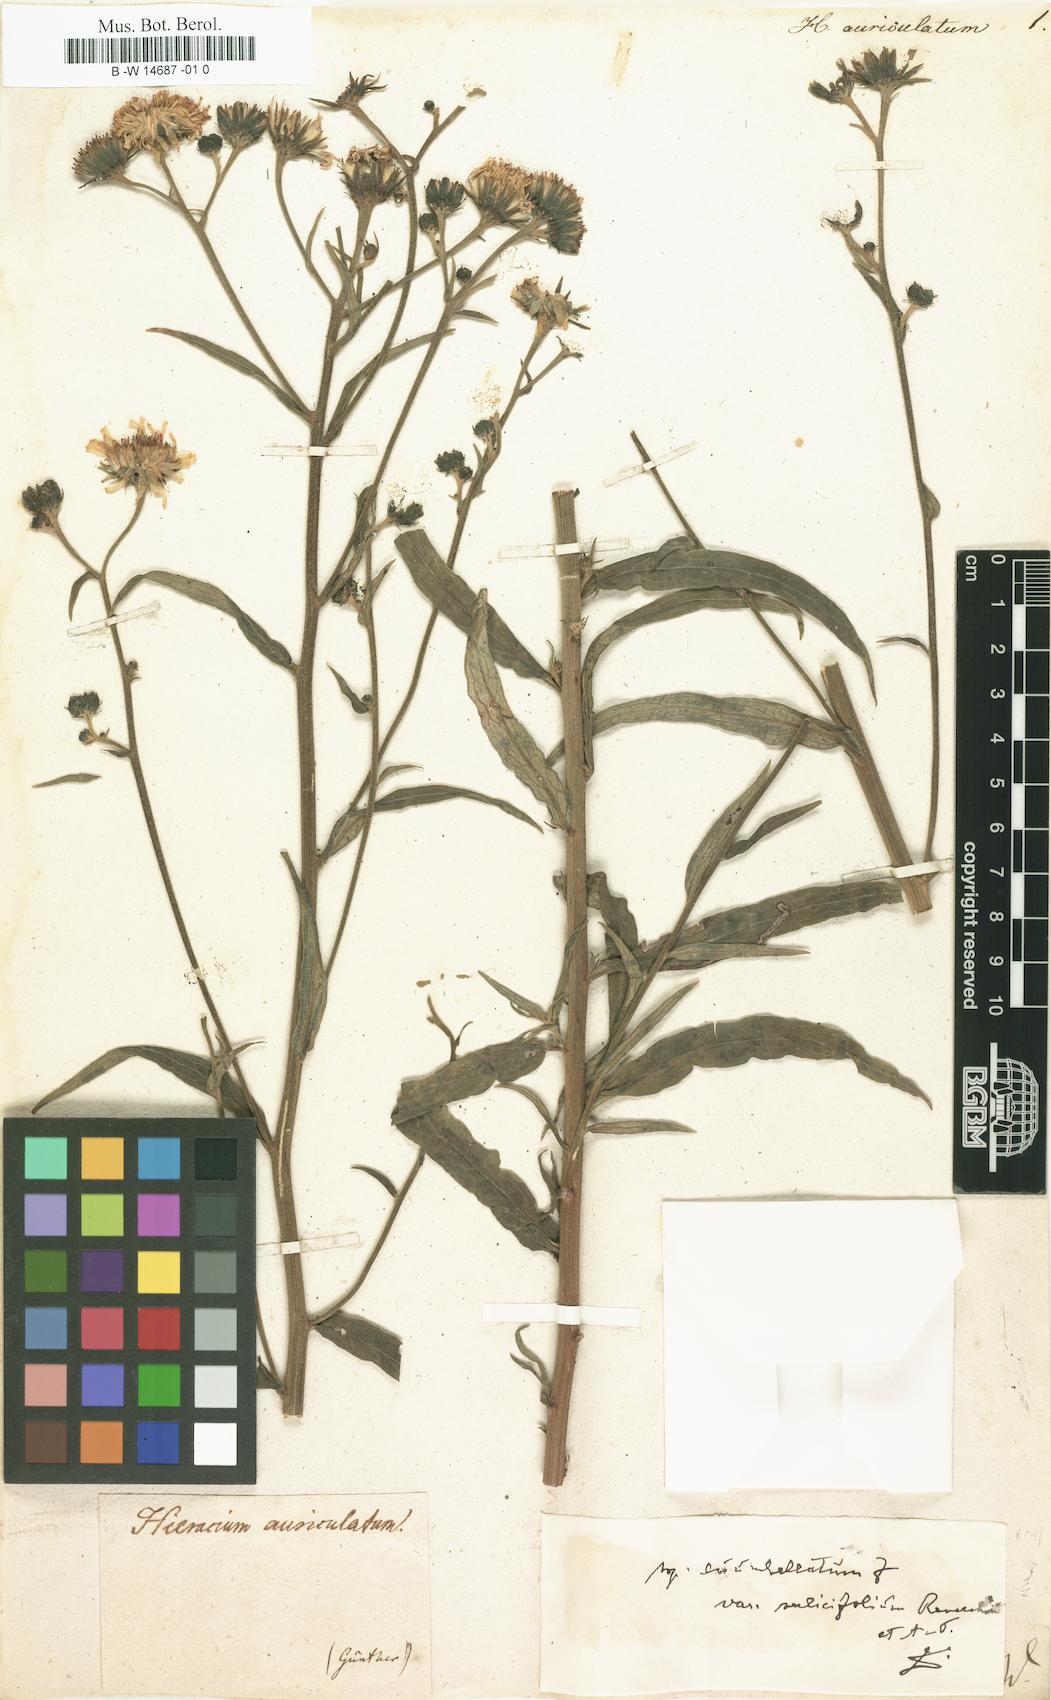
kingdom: Plantae
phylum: Tracheophyta
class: Magnoliopsida
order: Asterales
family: Asteraceae
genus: Hieracium
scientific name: Hieracium auriculatum
